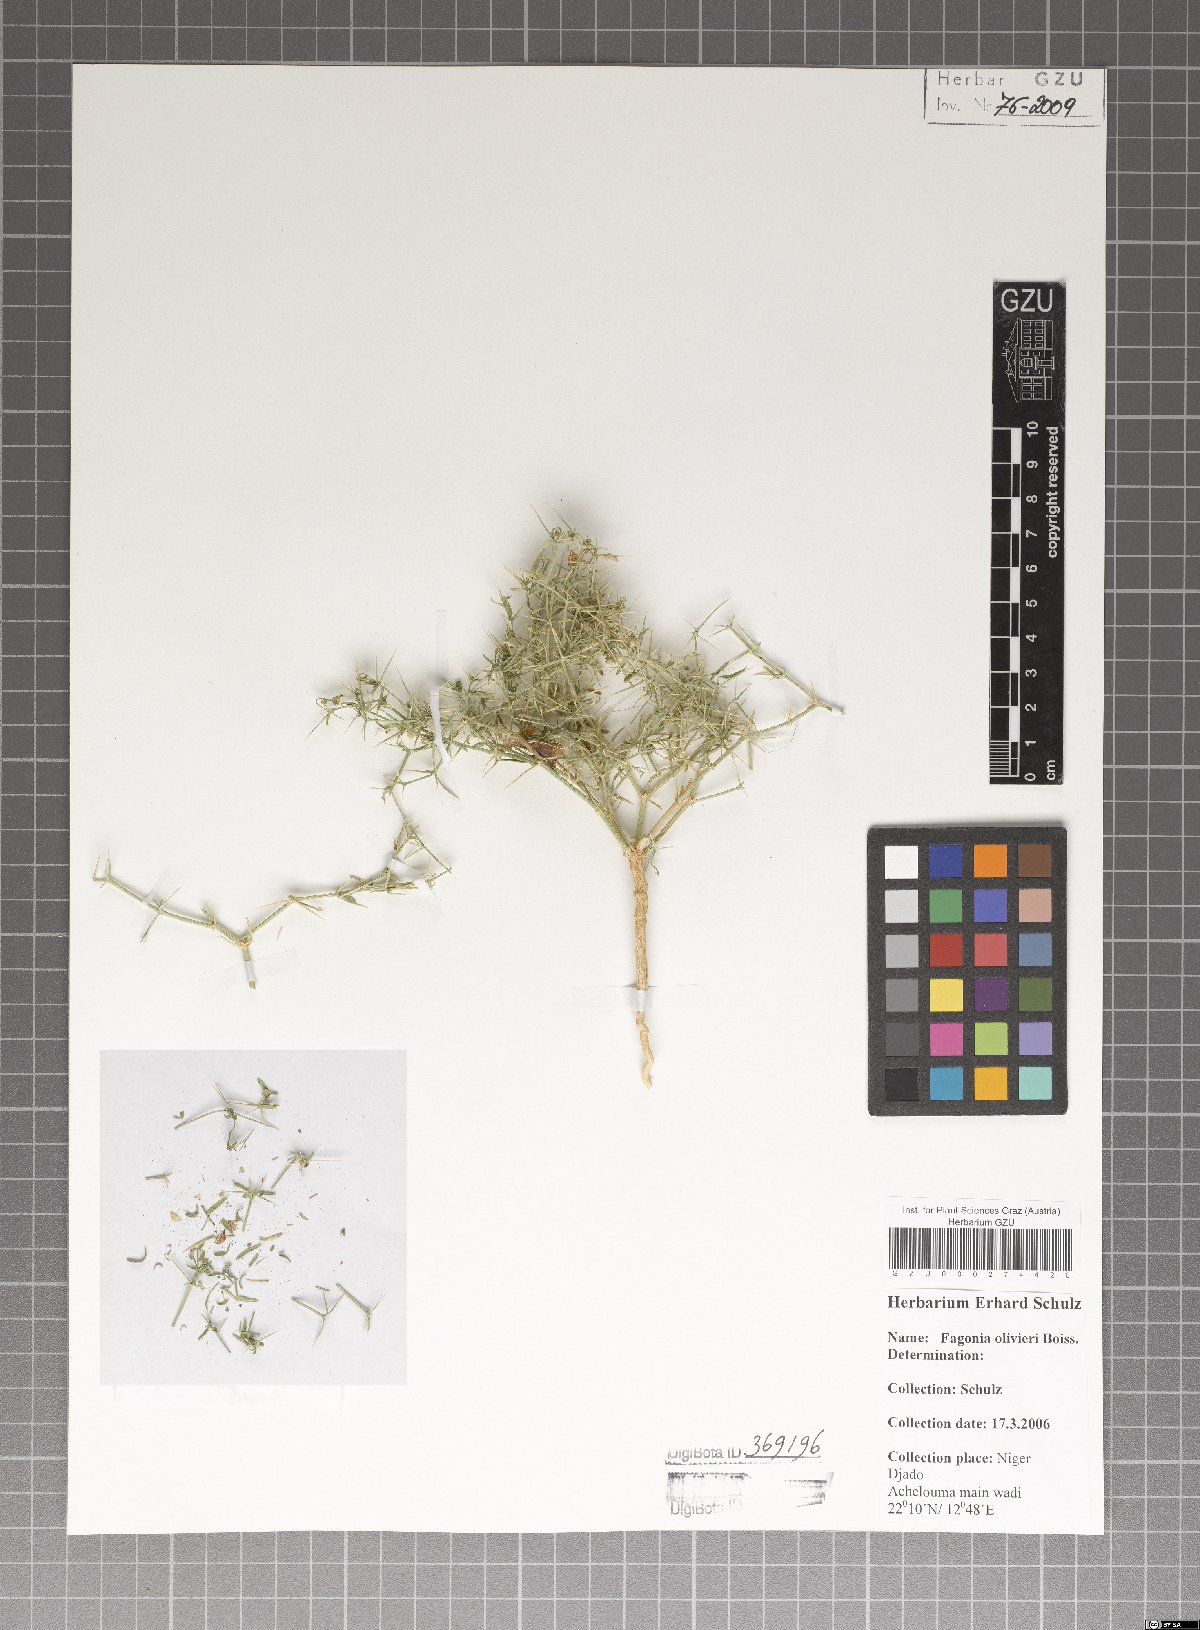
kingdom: Plantae
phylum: Tracheophyta
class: Magnoliopsida
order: Zygophyllales
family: Zygophyllaceae
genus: Fagonia
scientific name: Fagonia olivieri
